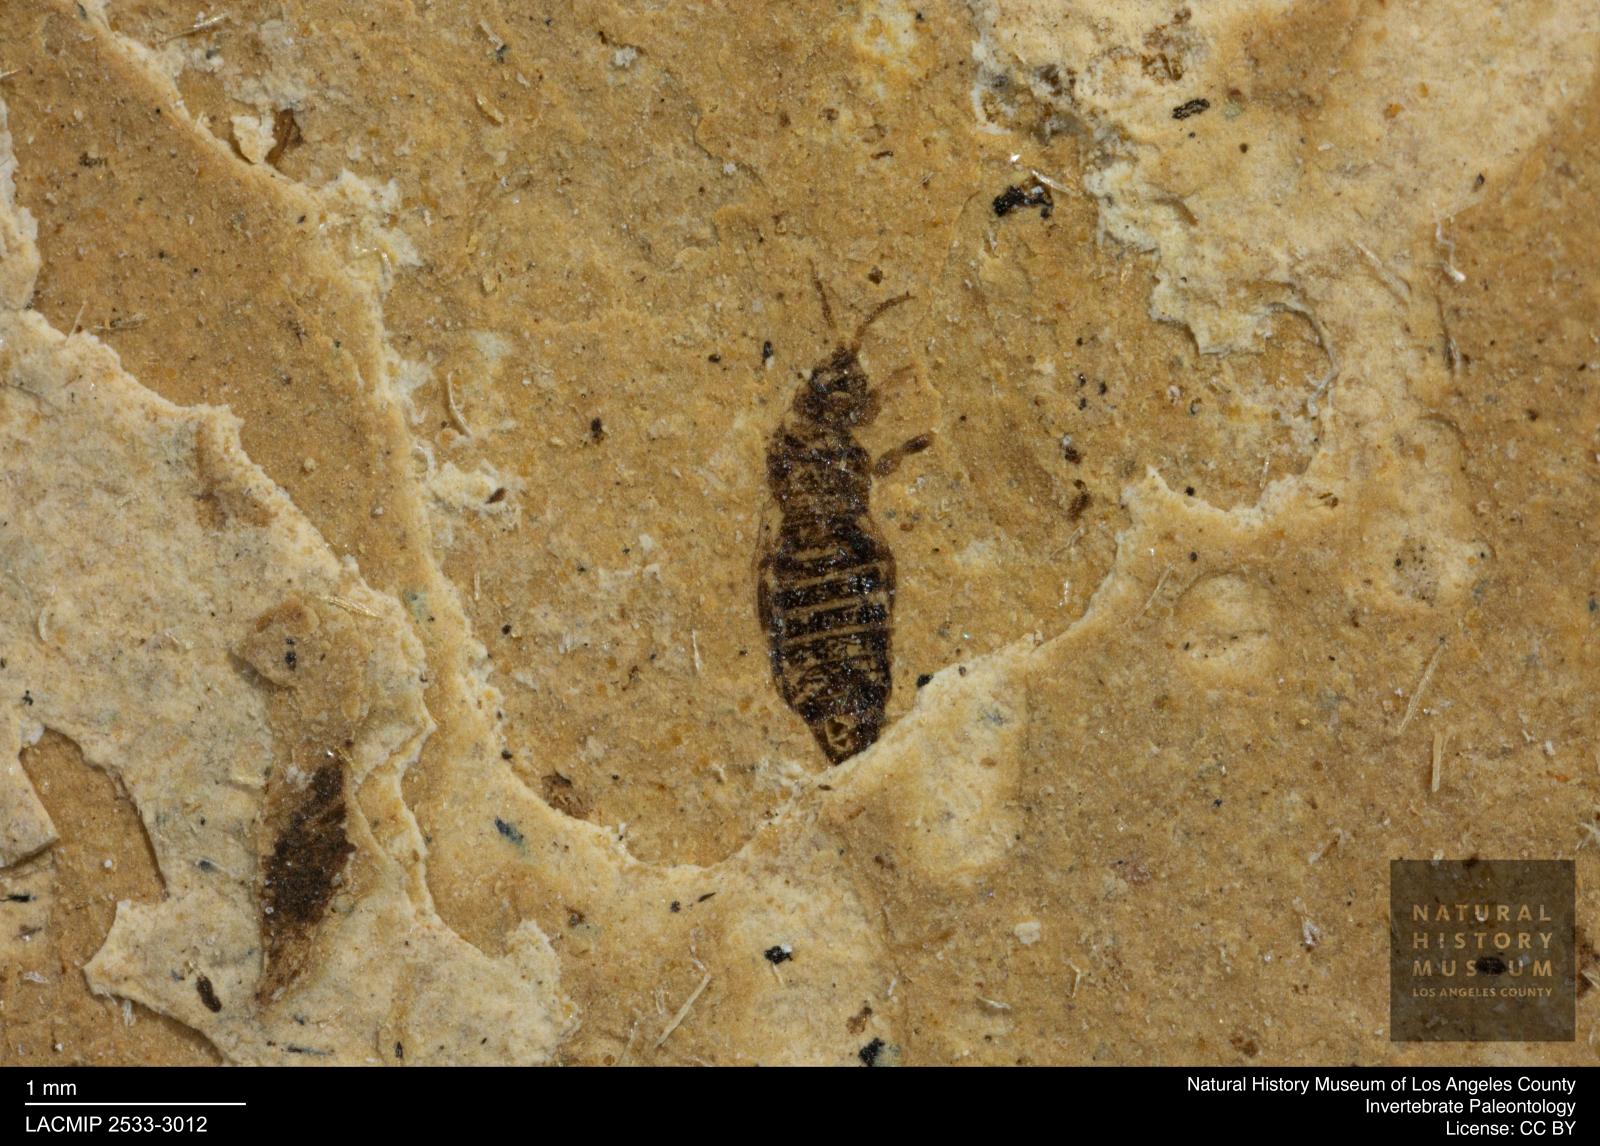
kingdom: Animalia
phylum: Arthropoda
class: Insecta
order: Thysanoptera
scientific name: Thysanoptera
